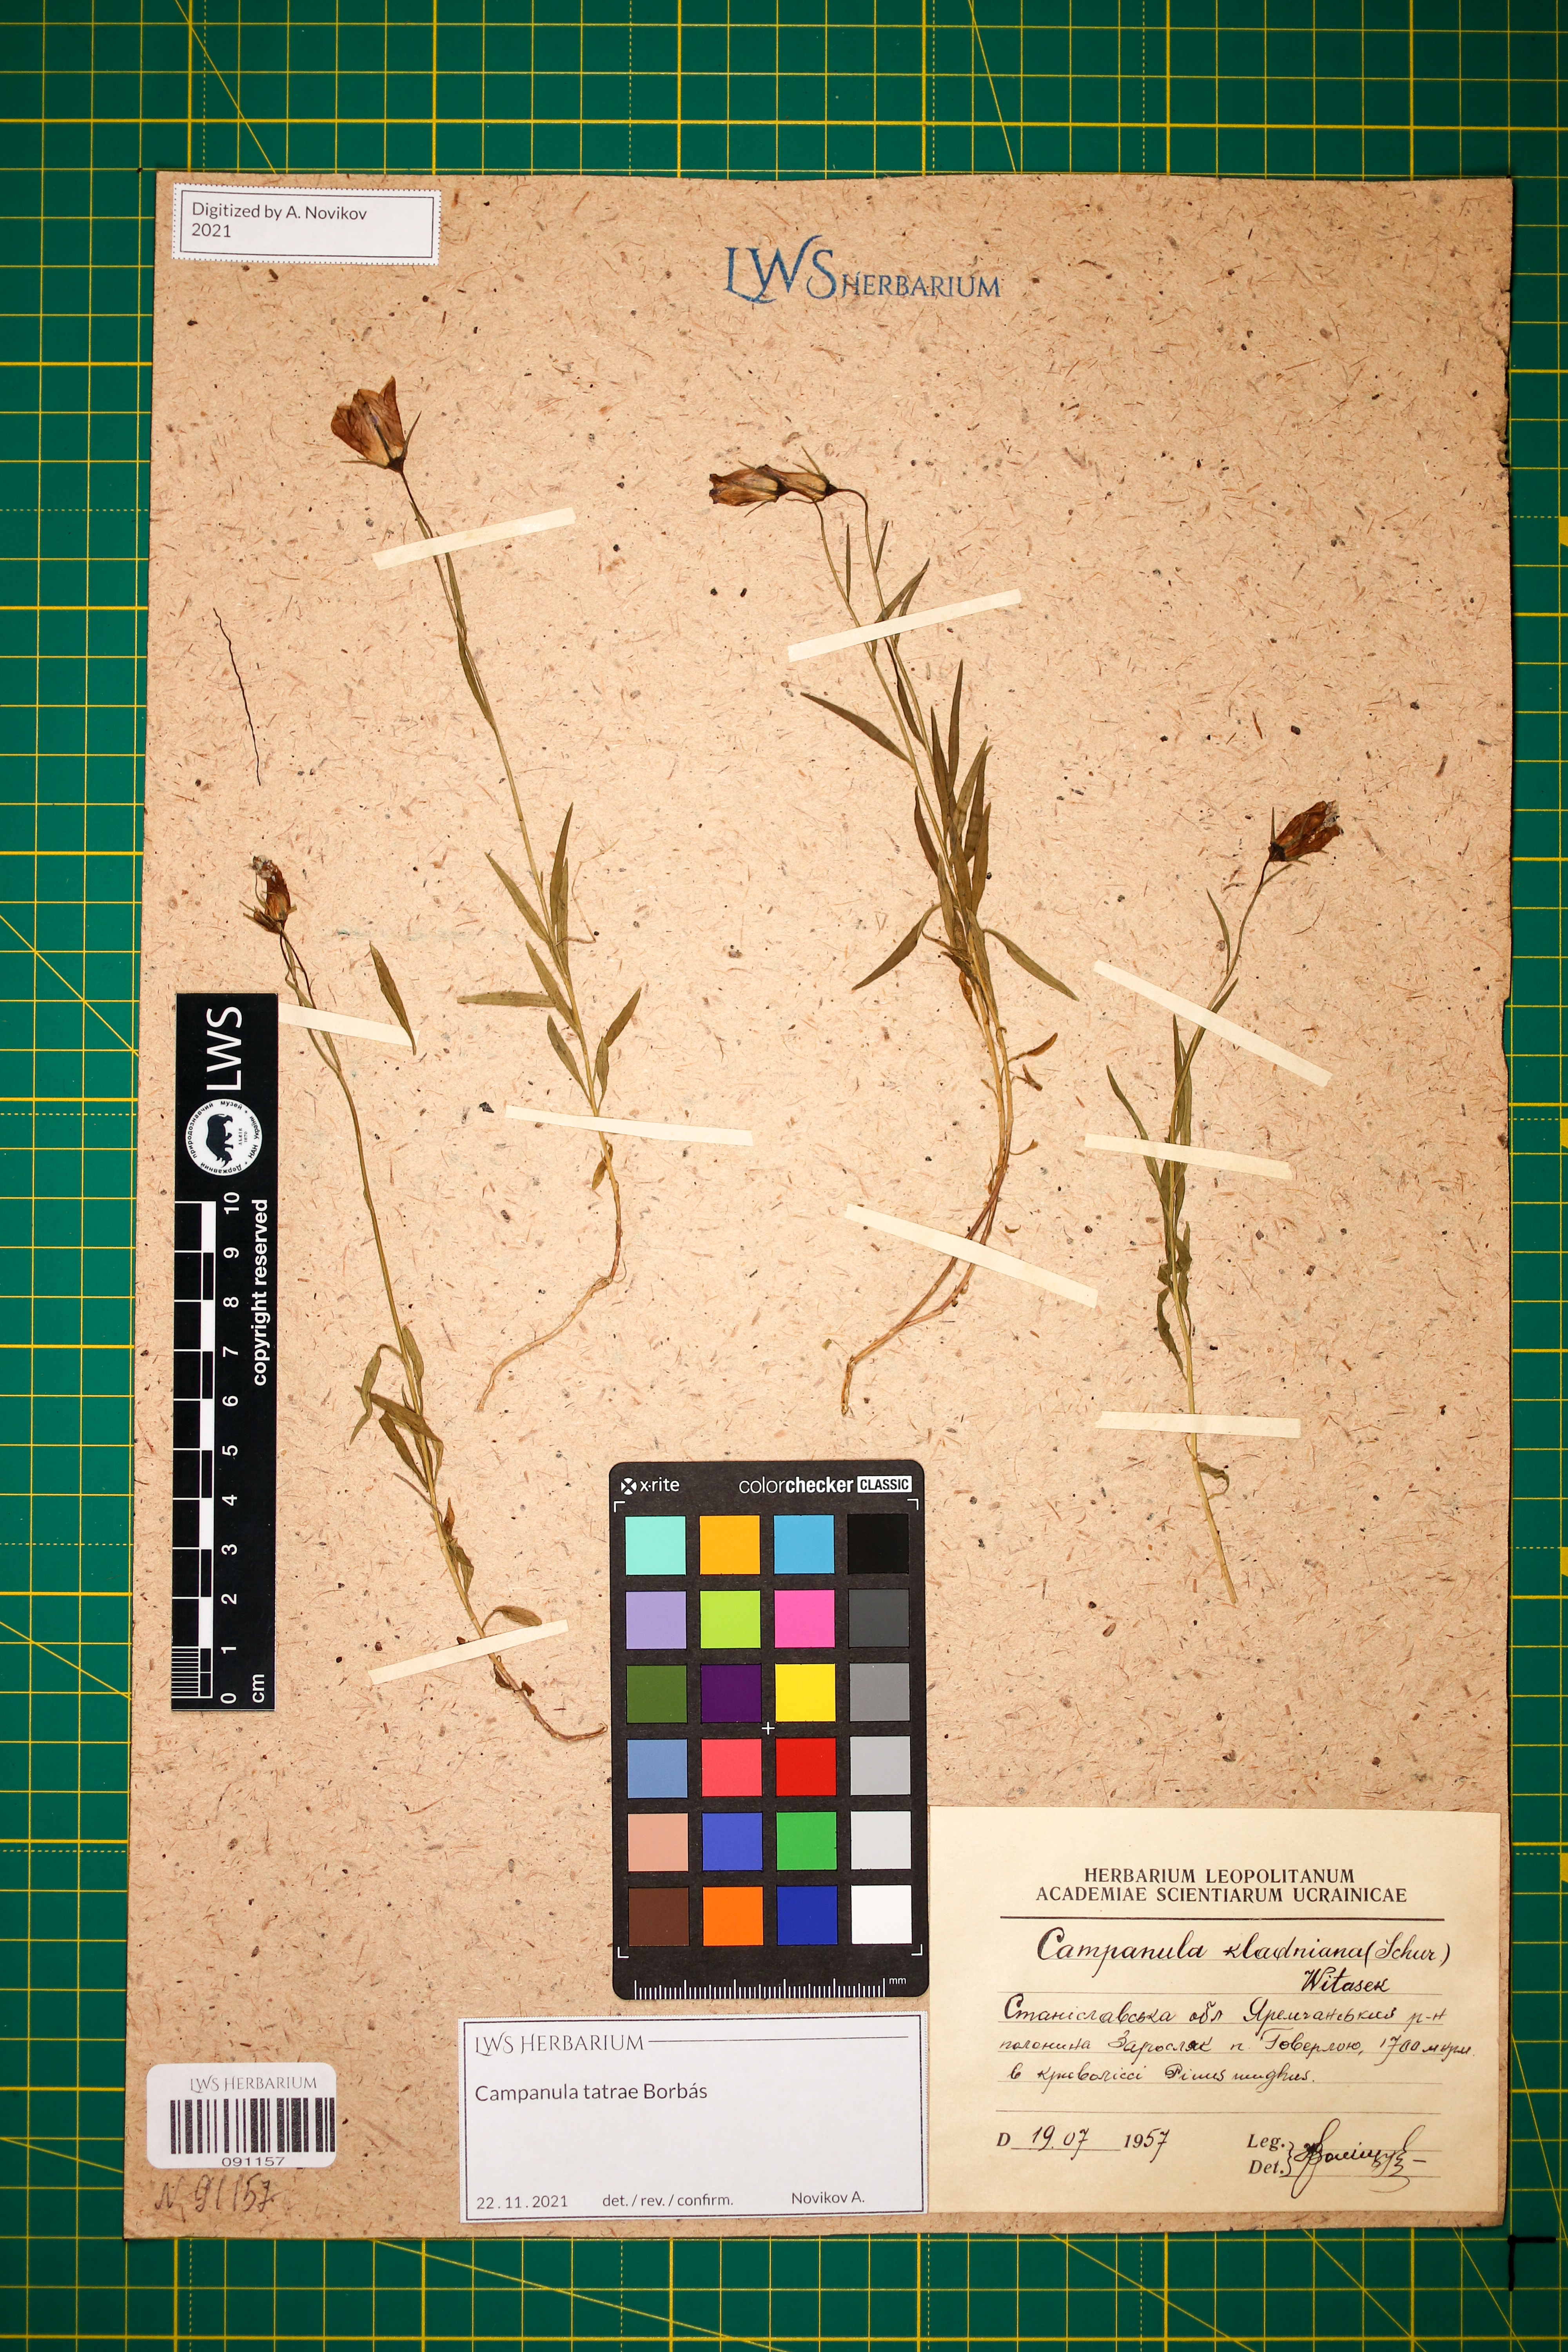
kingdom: Plantae
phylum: Tracheophyta
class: Magnoliopsida
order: Asterales
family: Campanulaceae
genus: Campanula
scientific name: Campanula kladniana
